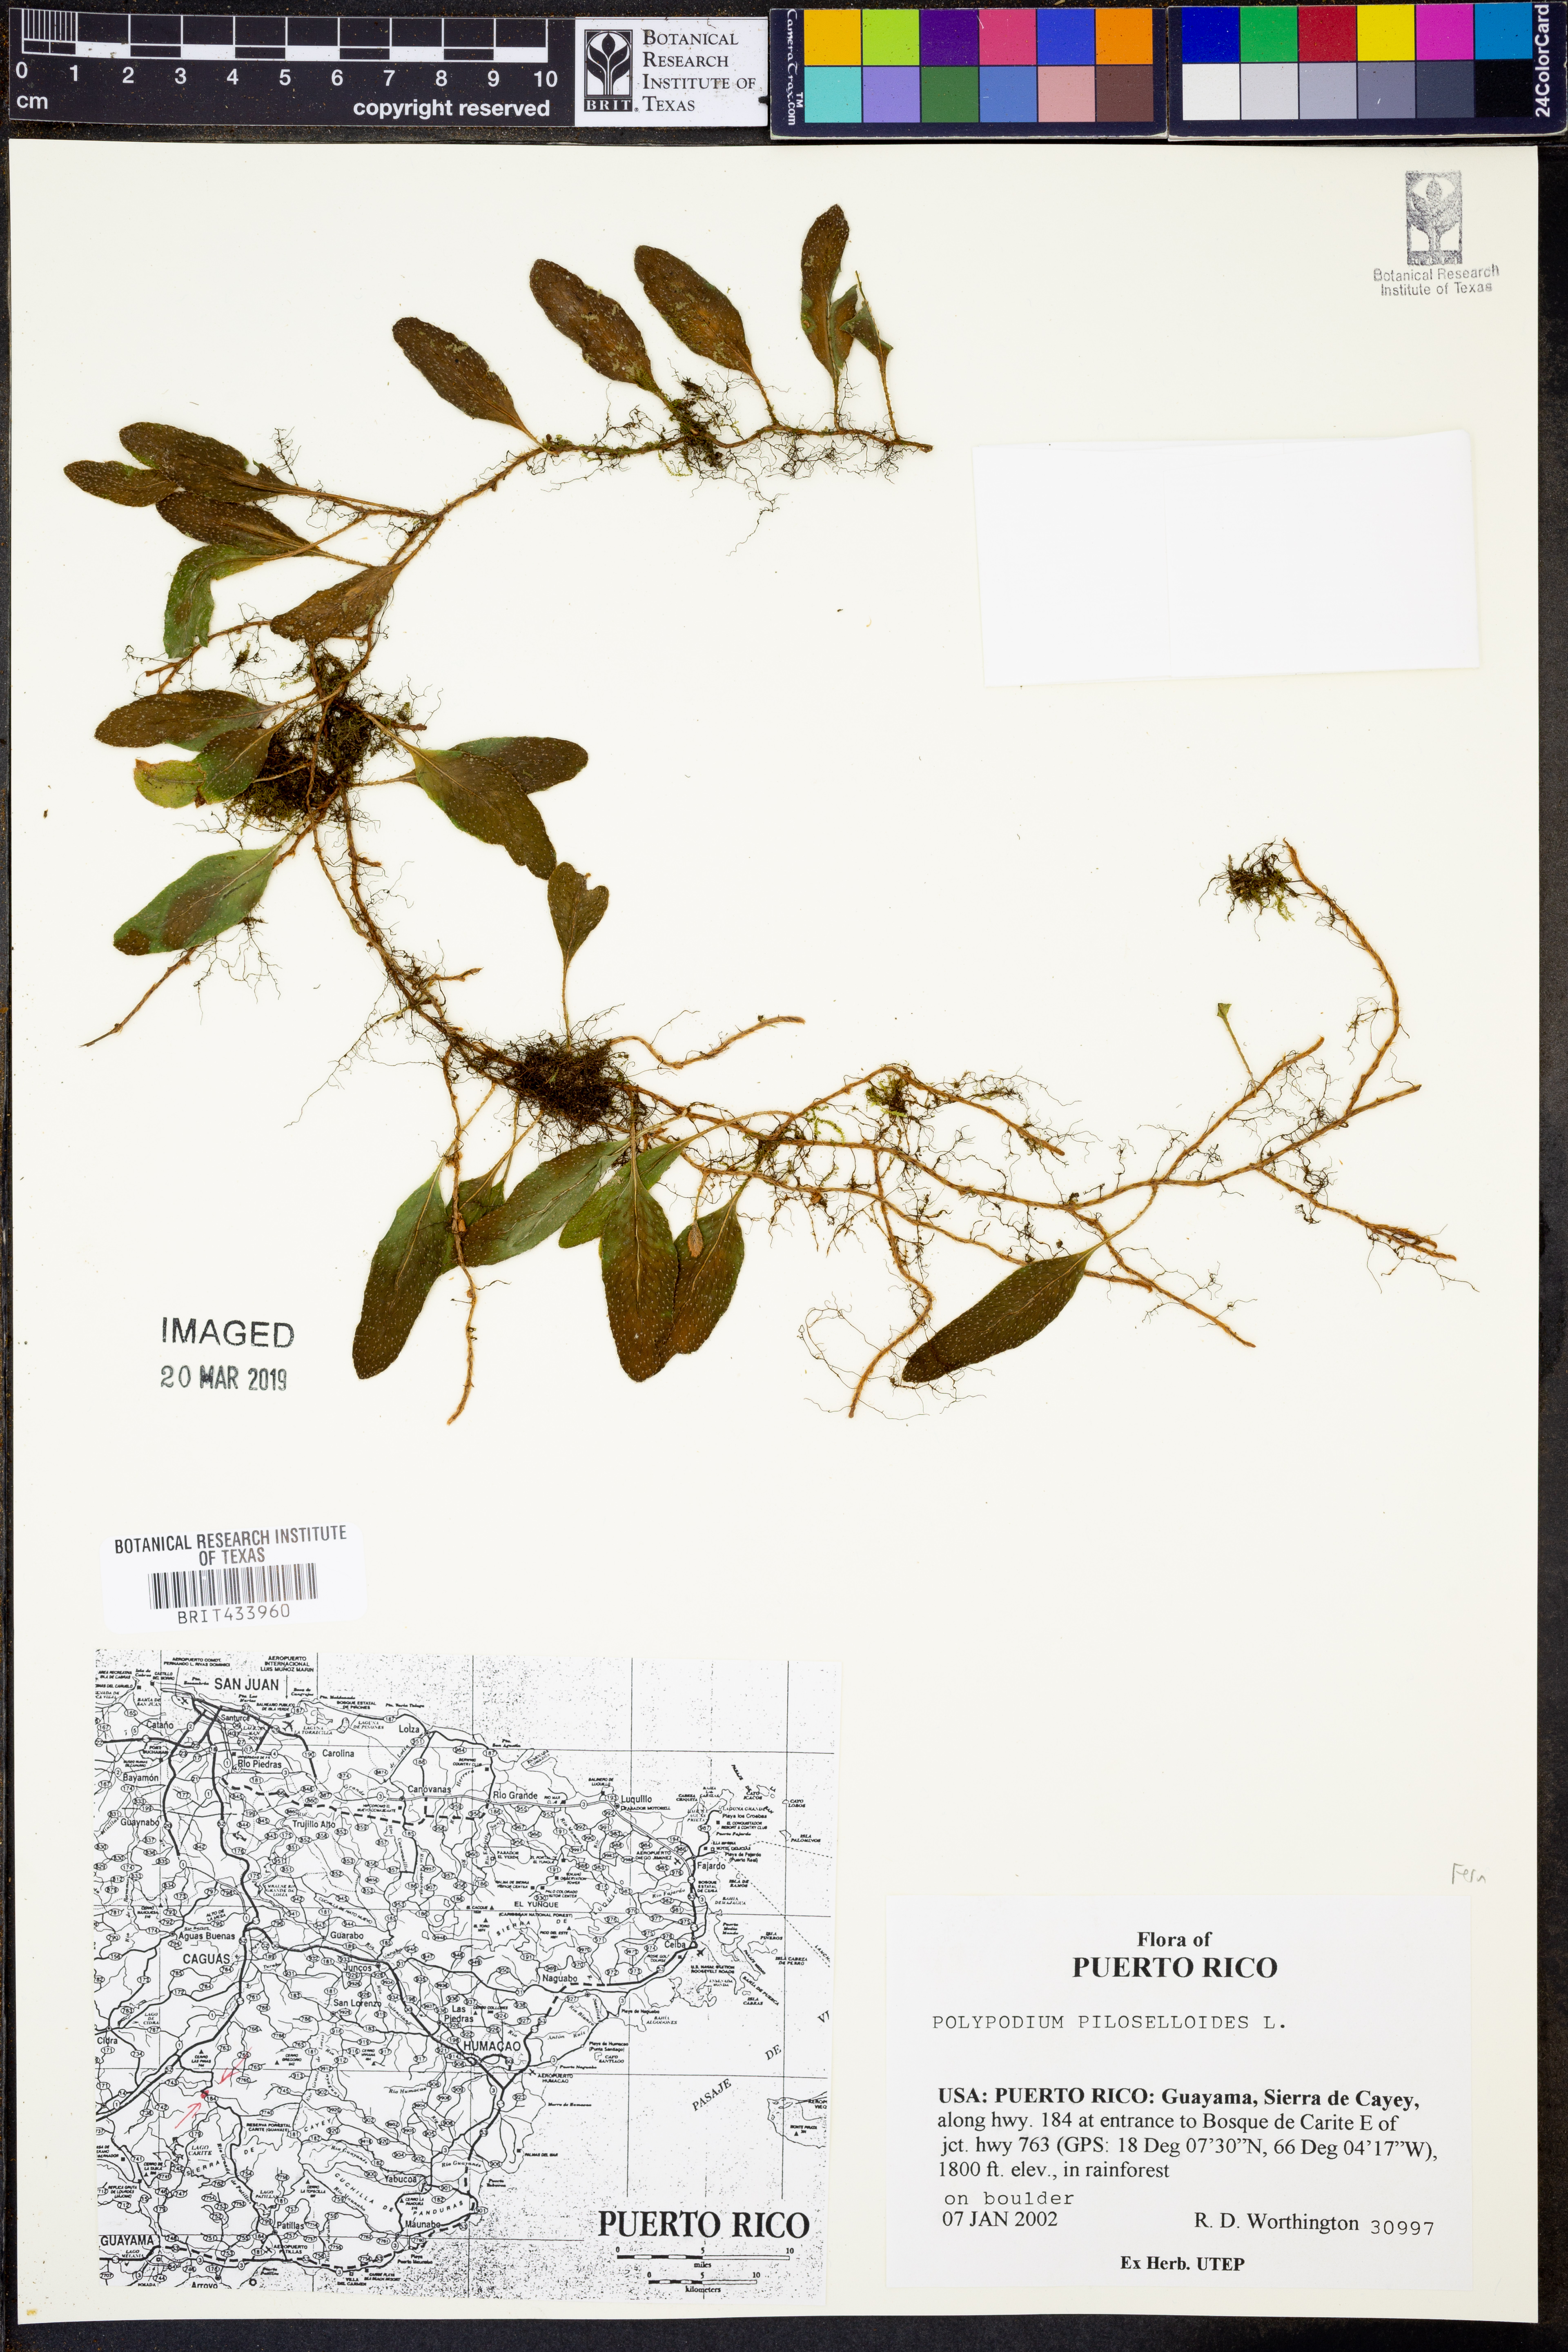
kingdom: Plantae
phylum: Tracheophyta
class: Polypodiopsida
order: Polypodiales
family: Polypodiaceae
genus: Microgramma
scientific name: Microgramma piloselloides
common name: Hairy snakefern
